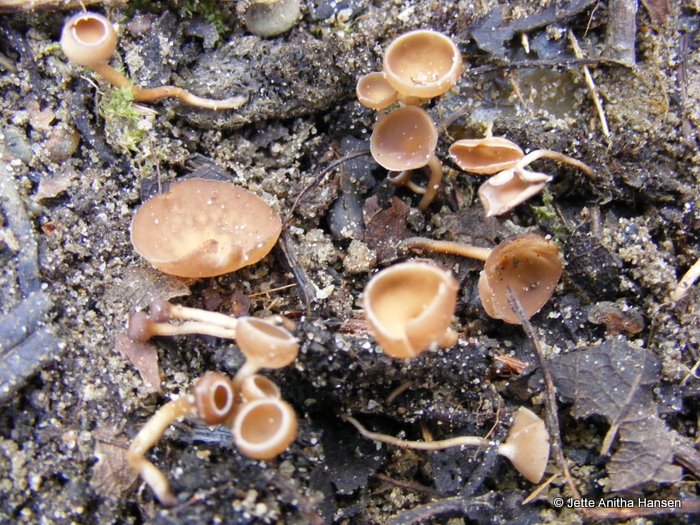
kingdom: Fungi
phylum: Ascomycota
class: Leotiomycetes
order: Helotiales
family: Sclerotiniaceae
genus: Ciboria
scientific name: Ciboria caucus
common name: rakle-knoldskive
